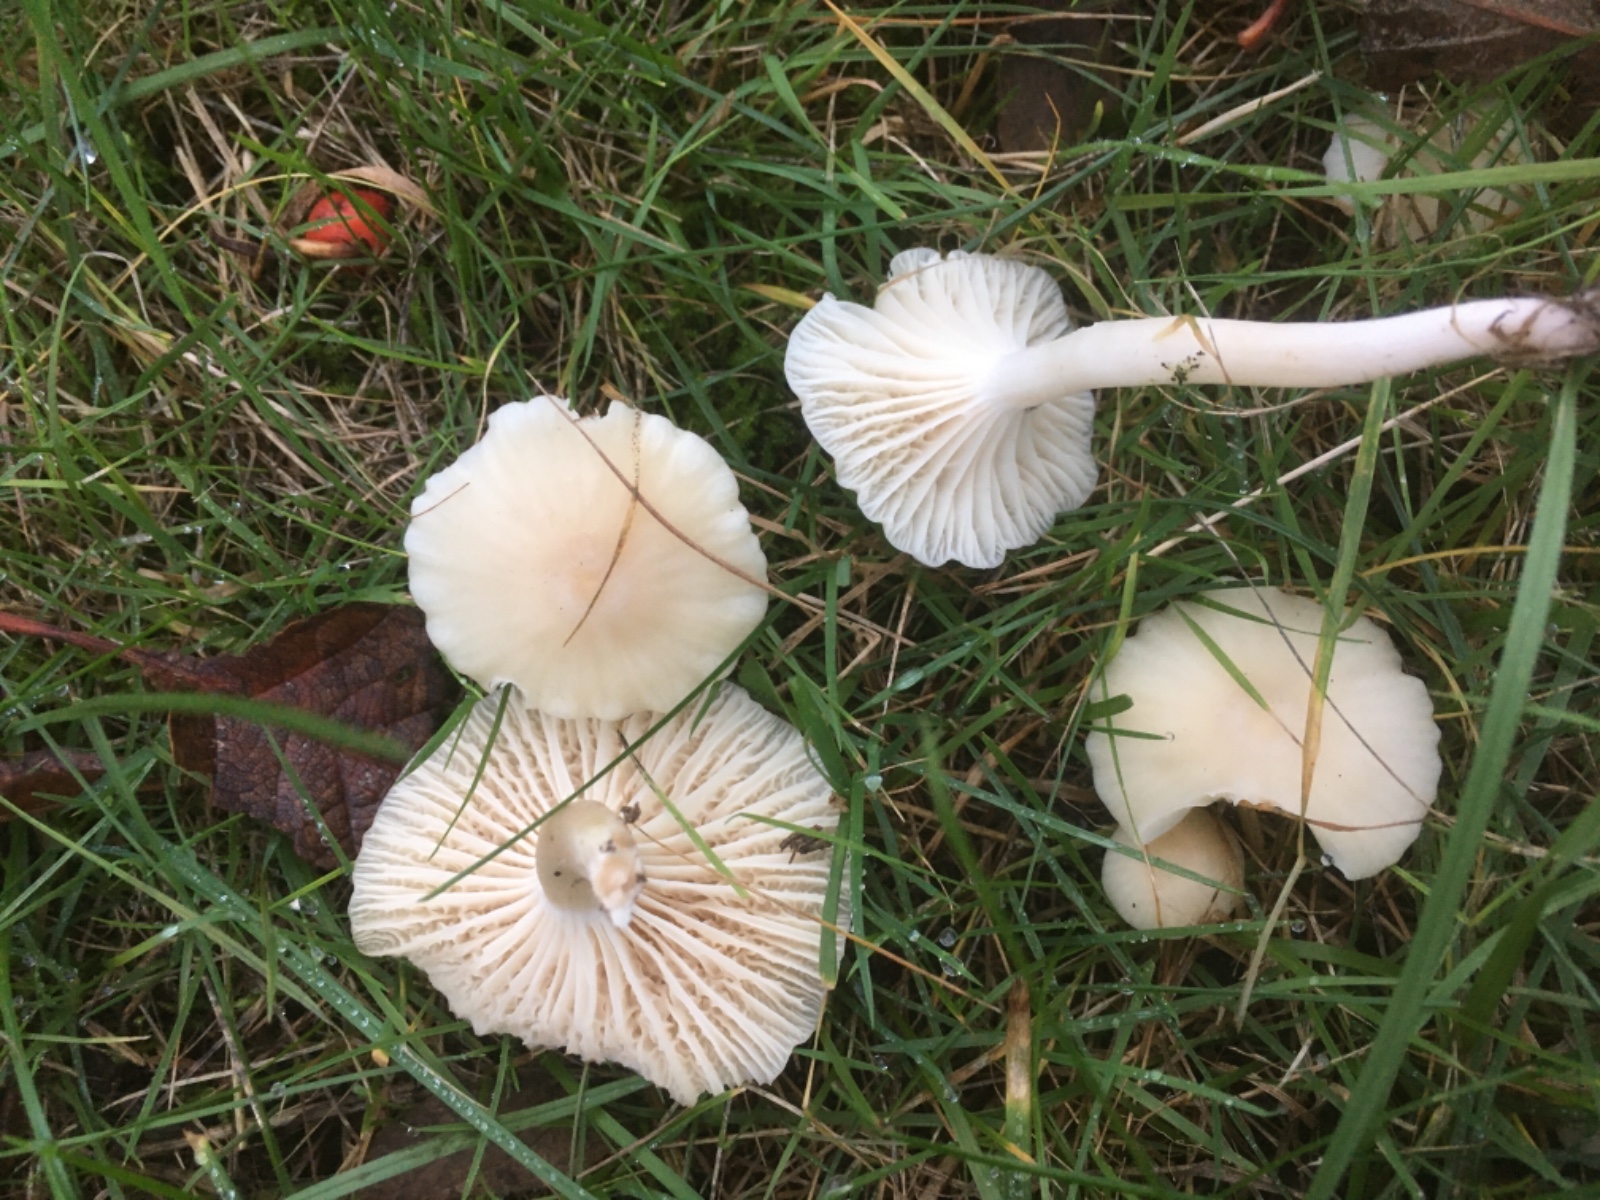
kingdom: Fungi
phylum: Basidiomycota
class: Agaricomycetes
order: Agaricales
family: Hygrophoraceae
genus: Cuphophyllus
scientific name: Cuphophyllus virgineus
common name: snehvid vokshat
